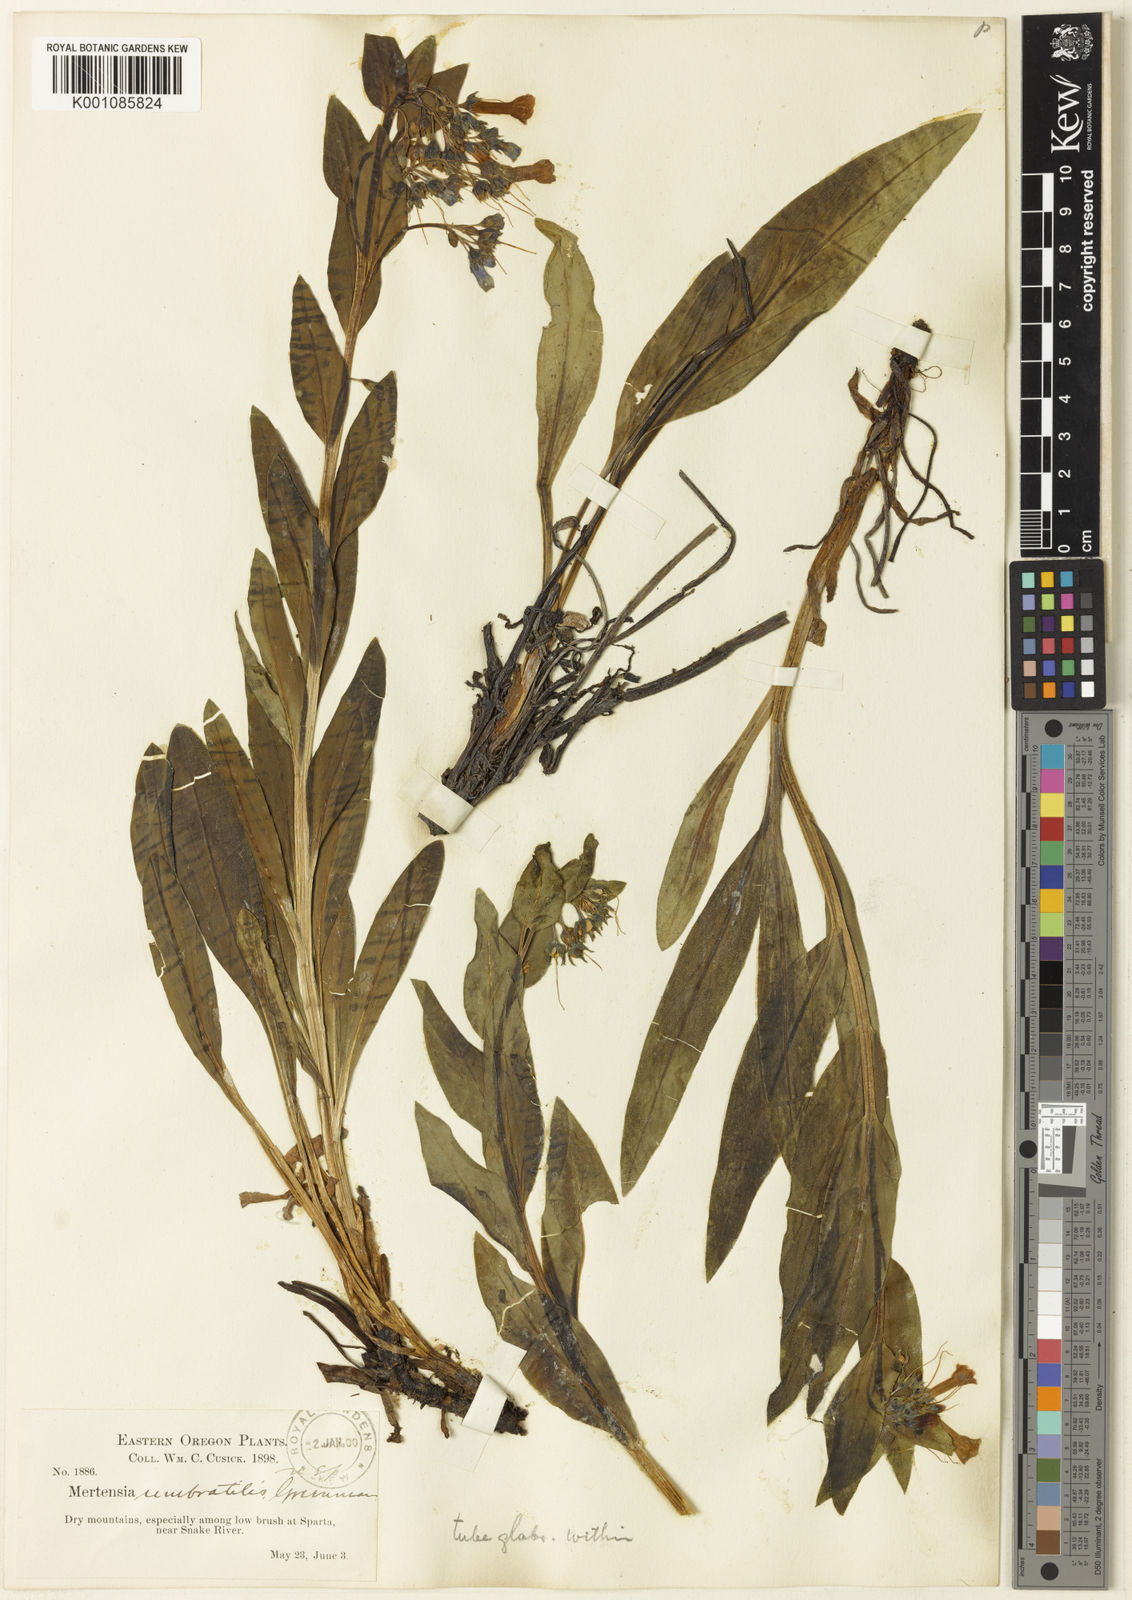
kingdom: Plantae
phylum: Tracheophyta
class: Magnoliopsida
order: Boraginales
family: Boraginaceae
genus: Mertensia
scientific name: Mertensia umbratilis
